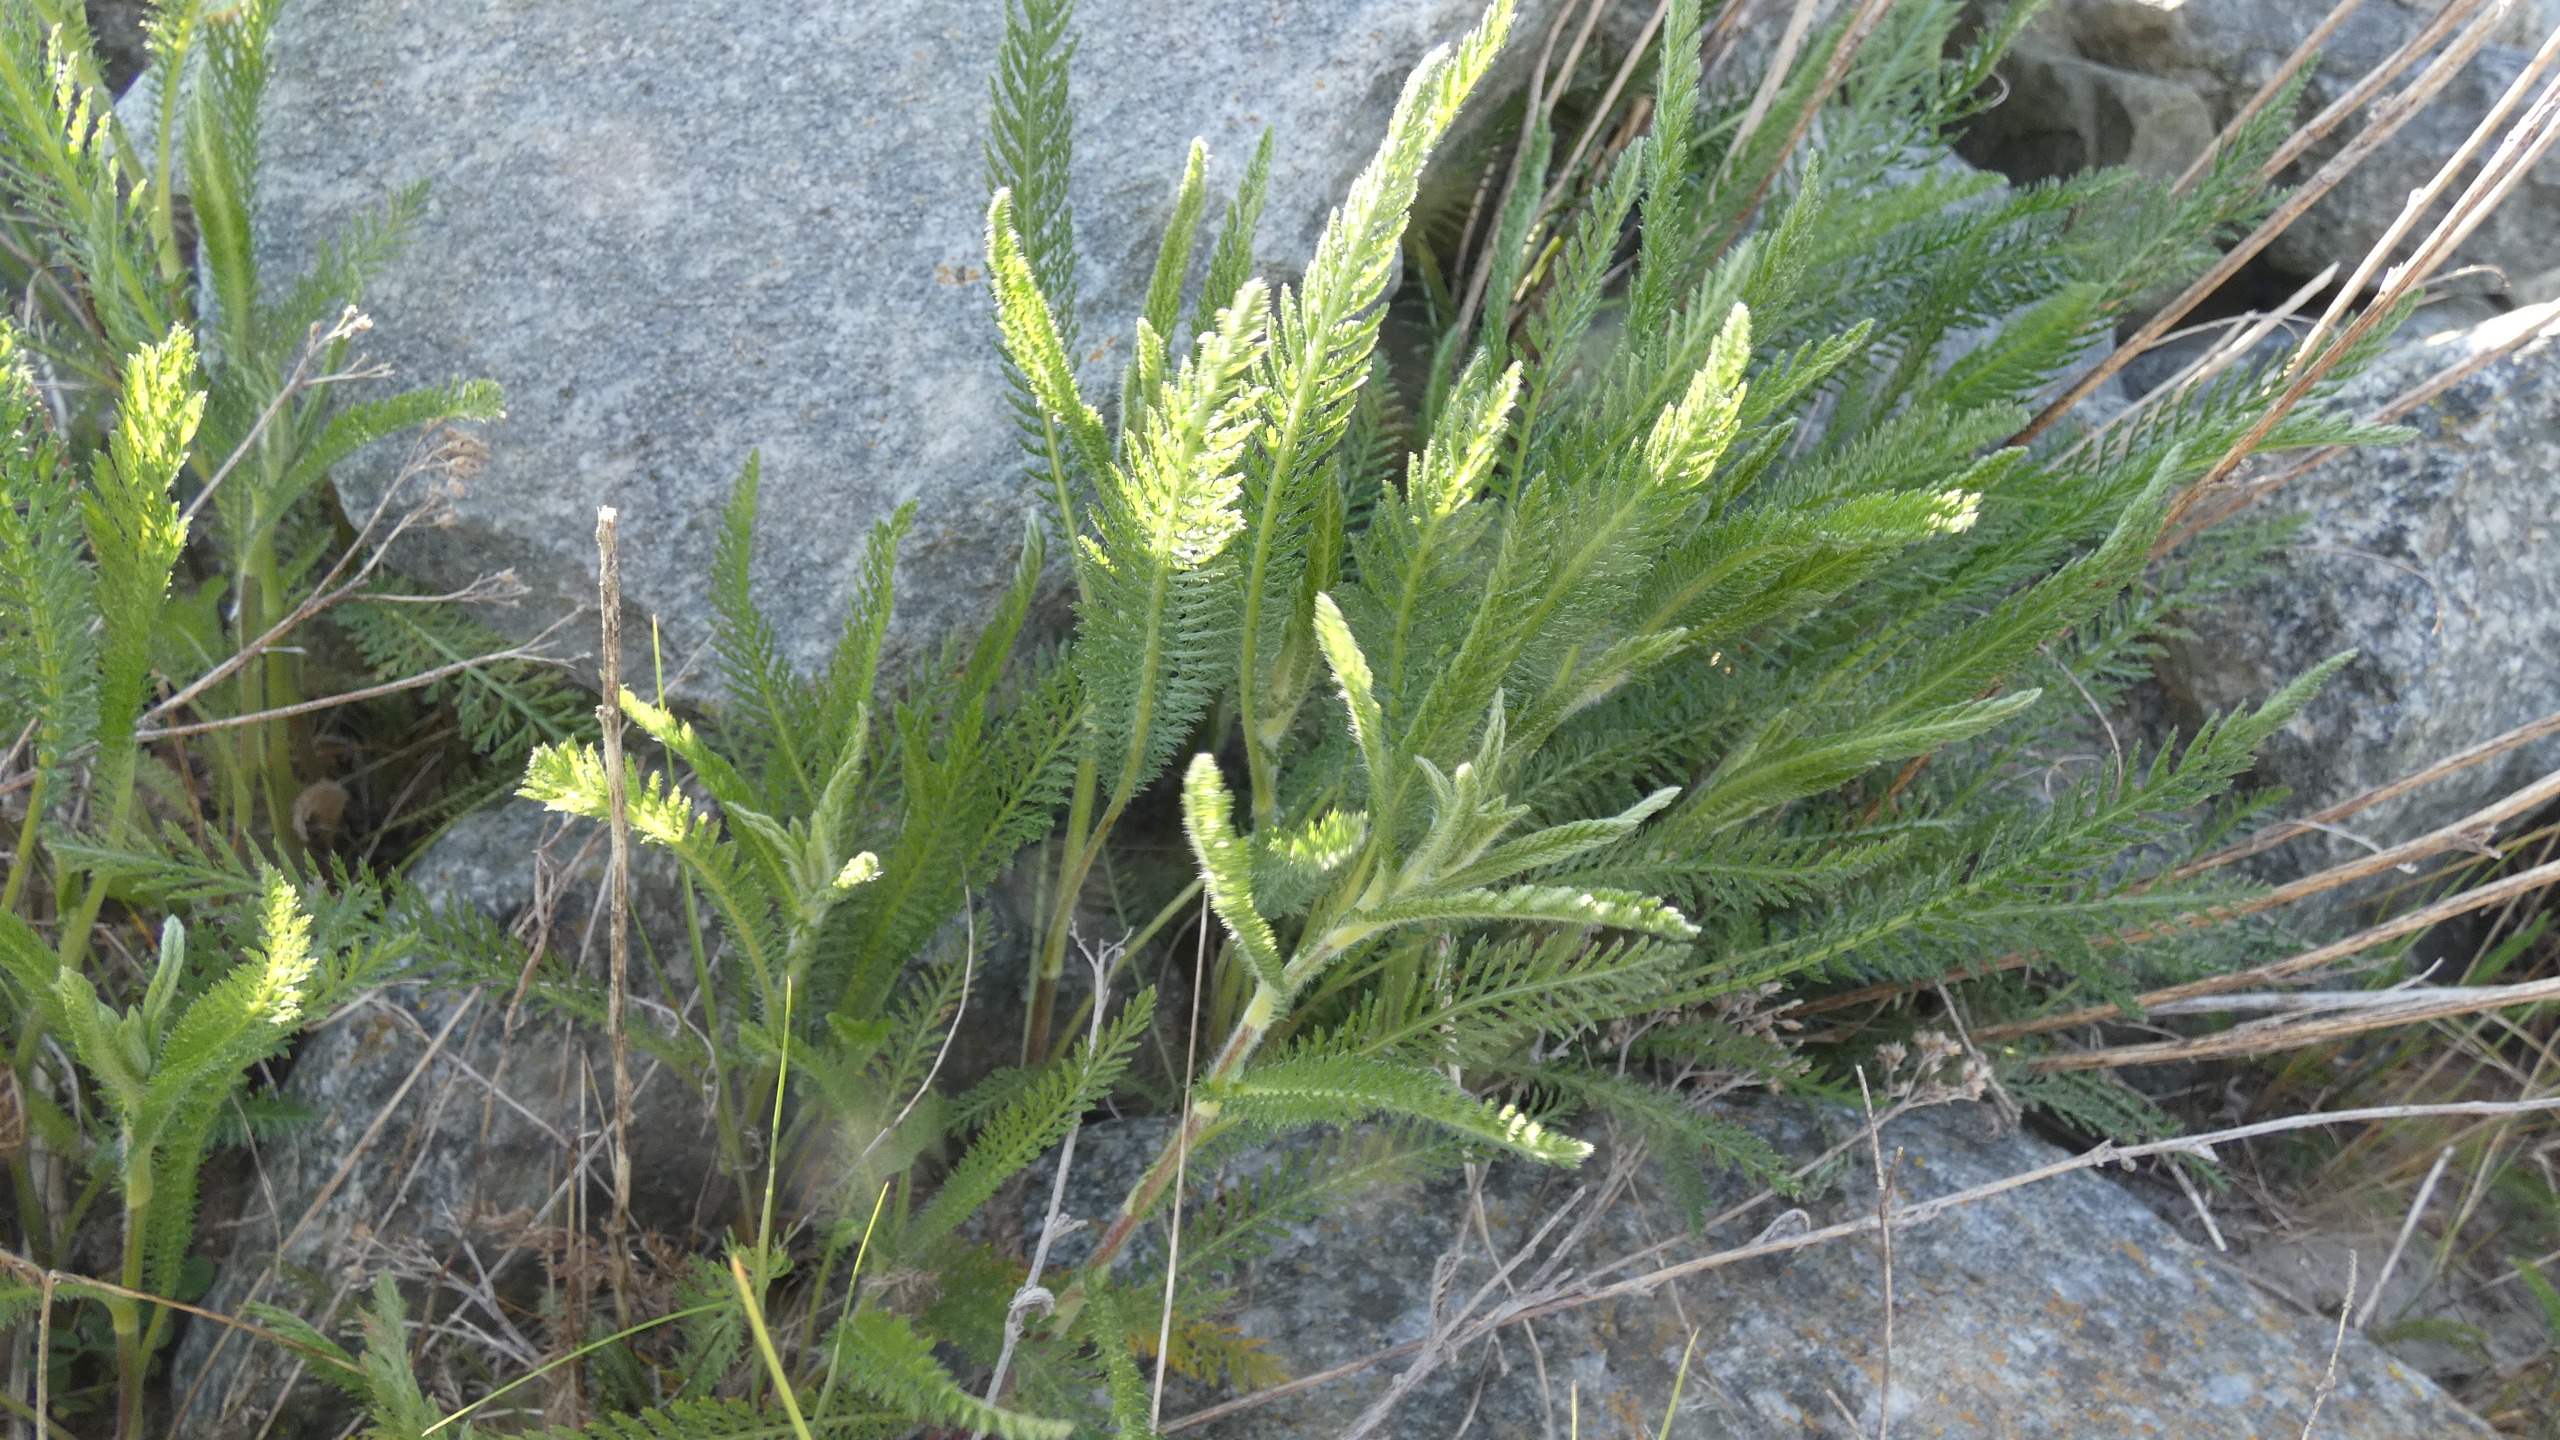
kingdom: Plantae
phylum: Tracheophyta
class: Magnoliopsida
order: Asterales
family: Asteraceae
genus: Achillea
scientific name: Achillea millefolium
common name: Almindelig røllike
